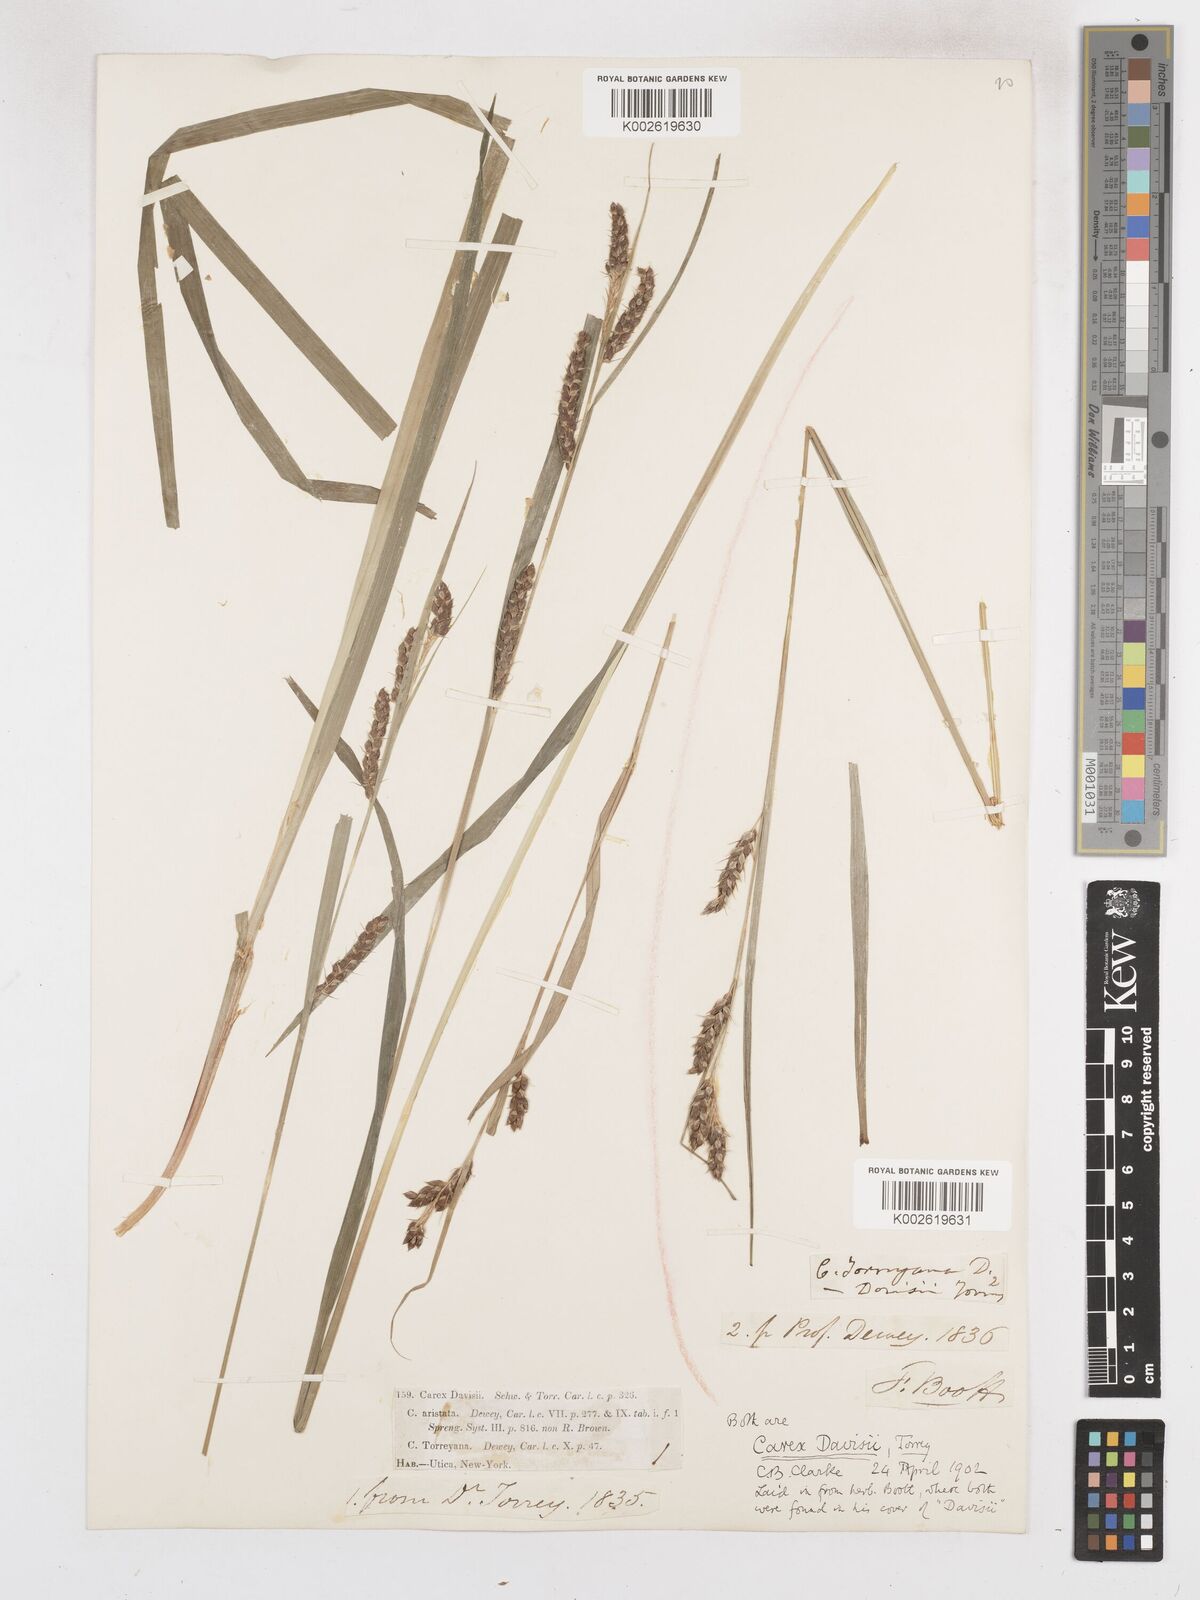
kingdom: Plantae
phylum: Tracheophyta
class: Liliopsida
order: Poales
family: Cyperaceae
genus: Carex
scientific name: Carex davisii
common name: Davis' sedge
